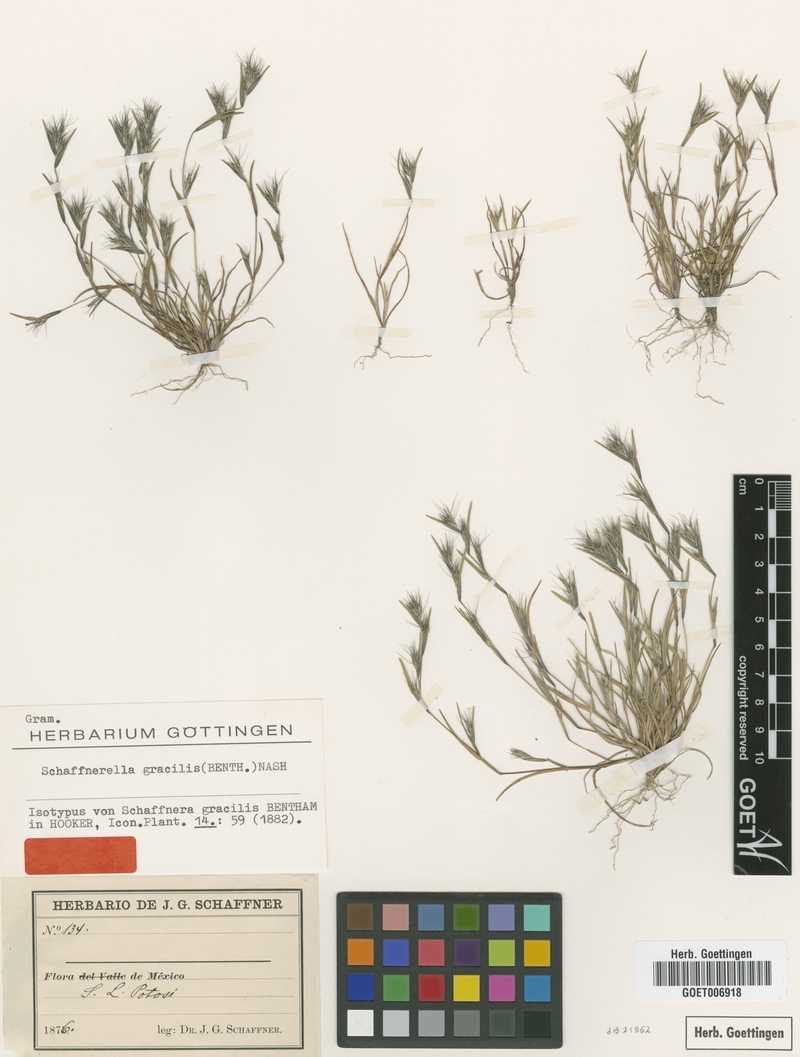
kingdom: Plantae
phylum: Tracheophyta
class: Liliopsida
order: Poales
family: Poaceae
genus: Muhlenbergia
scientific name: Muhlenbergia spatha
